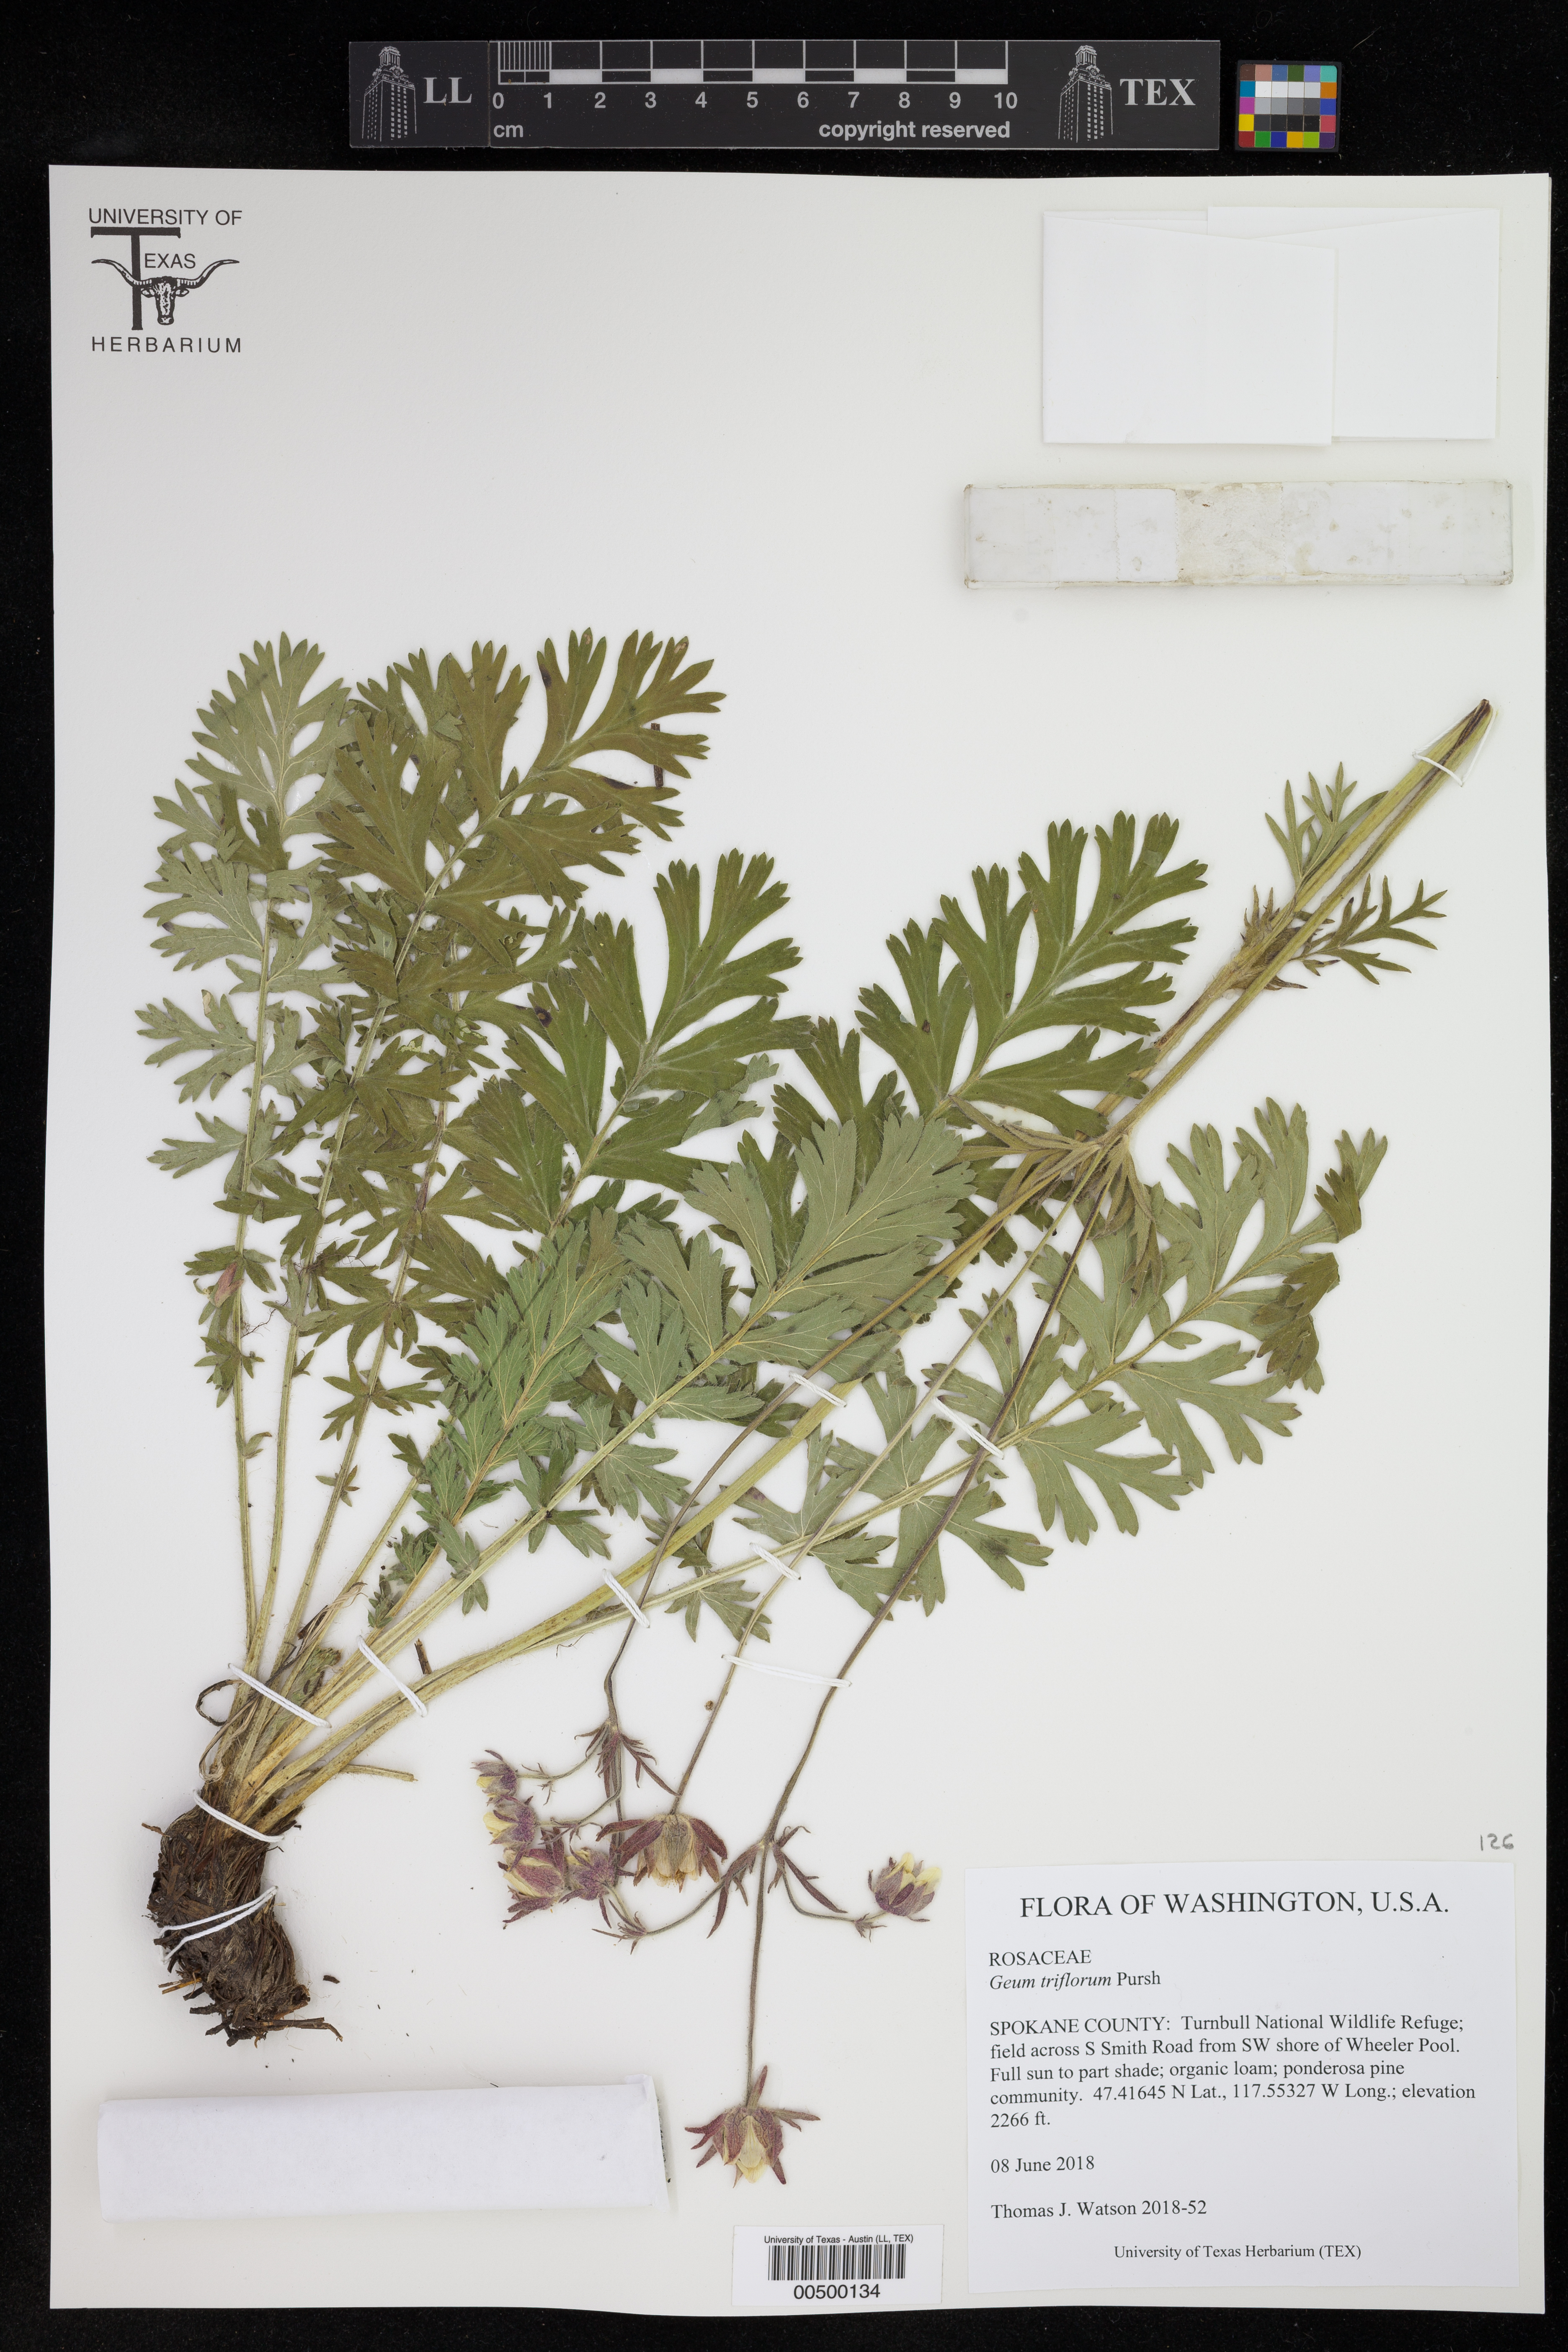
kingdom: Plantae
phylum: Tracheophyta
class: Magnoliopsida
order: Rosales
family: Rosaceae
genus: Geum
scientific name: Geum triflorum
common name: Old man's whiskers
